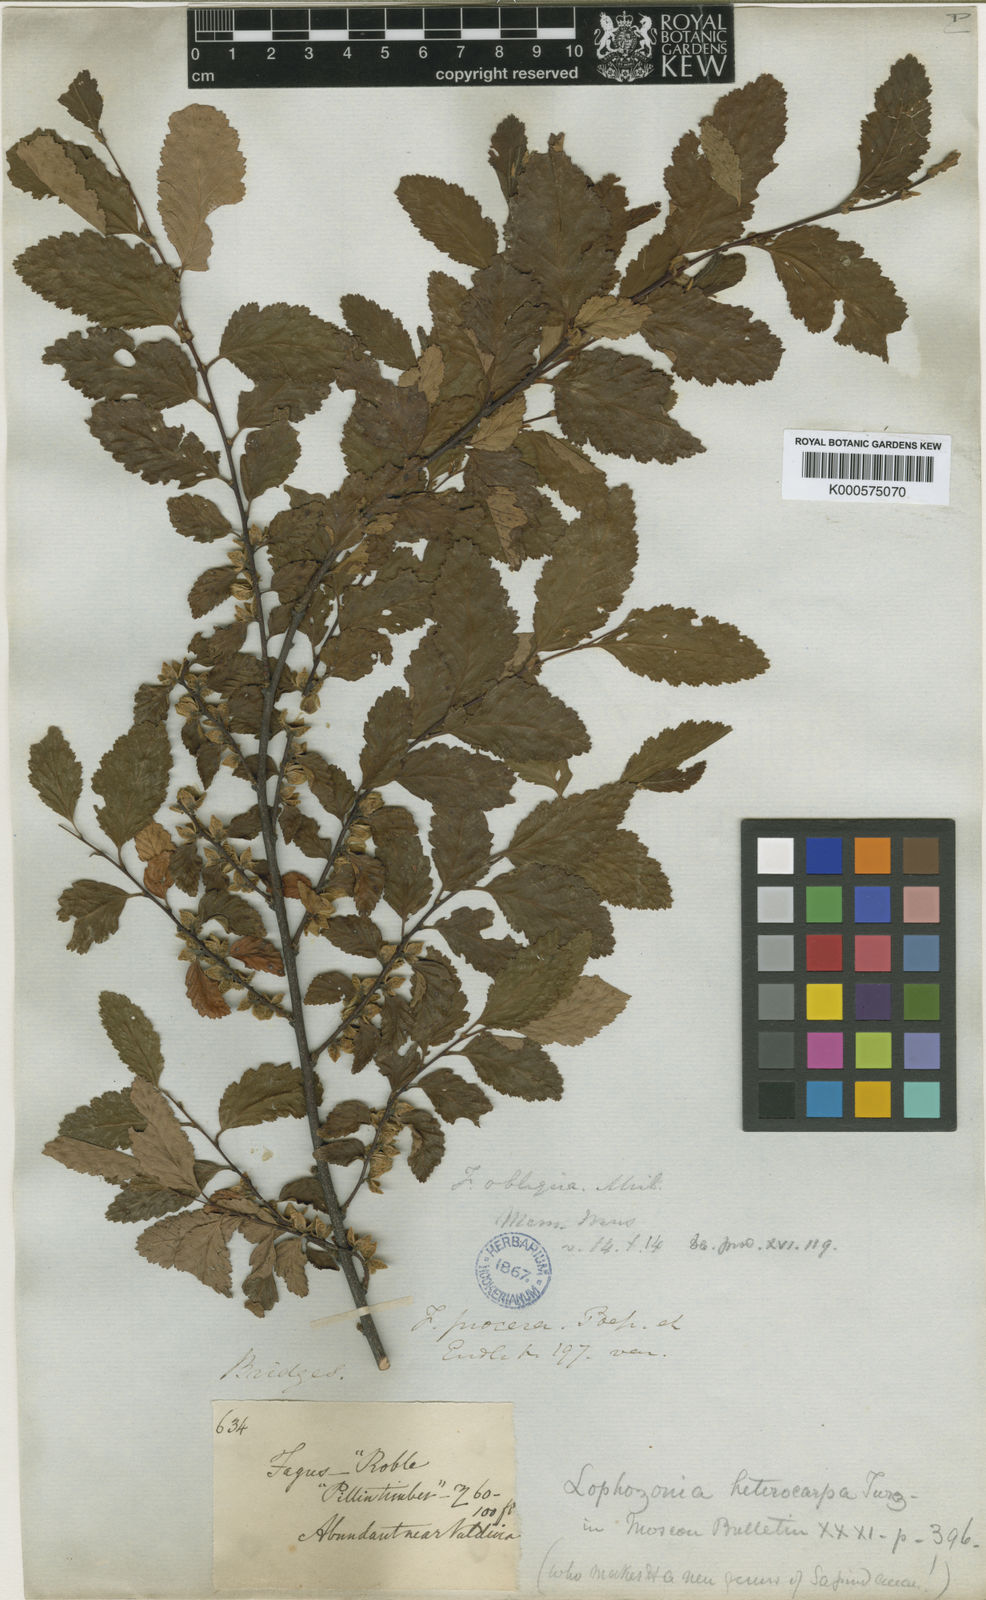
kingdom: Plantae
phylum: Tracheophyta
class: Magnoliopsida
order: Fagales
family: Nothofagaceae
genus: Nothofagus
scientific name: Nothofagus obliqua
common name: Roble beech
